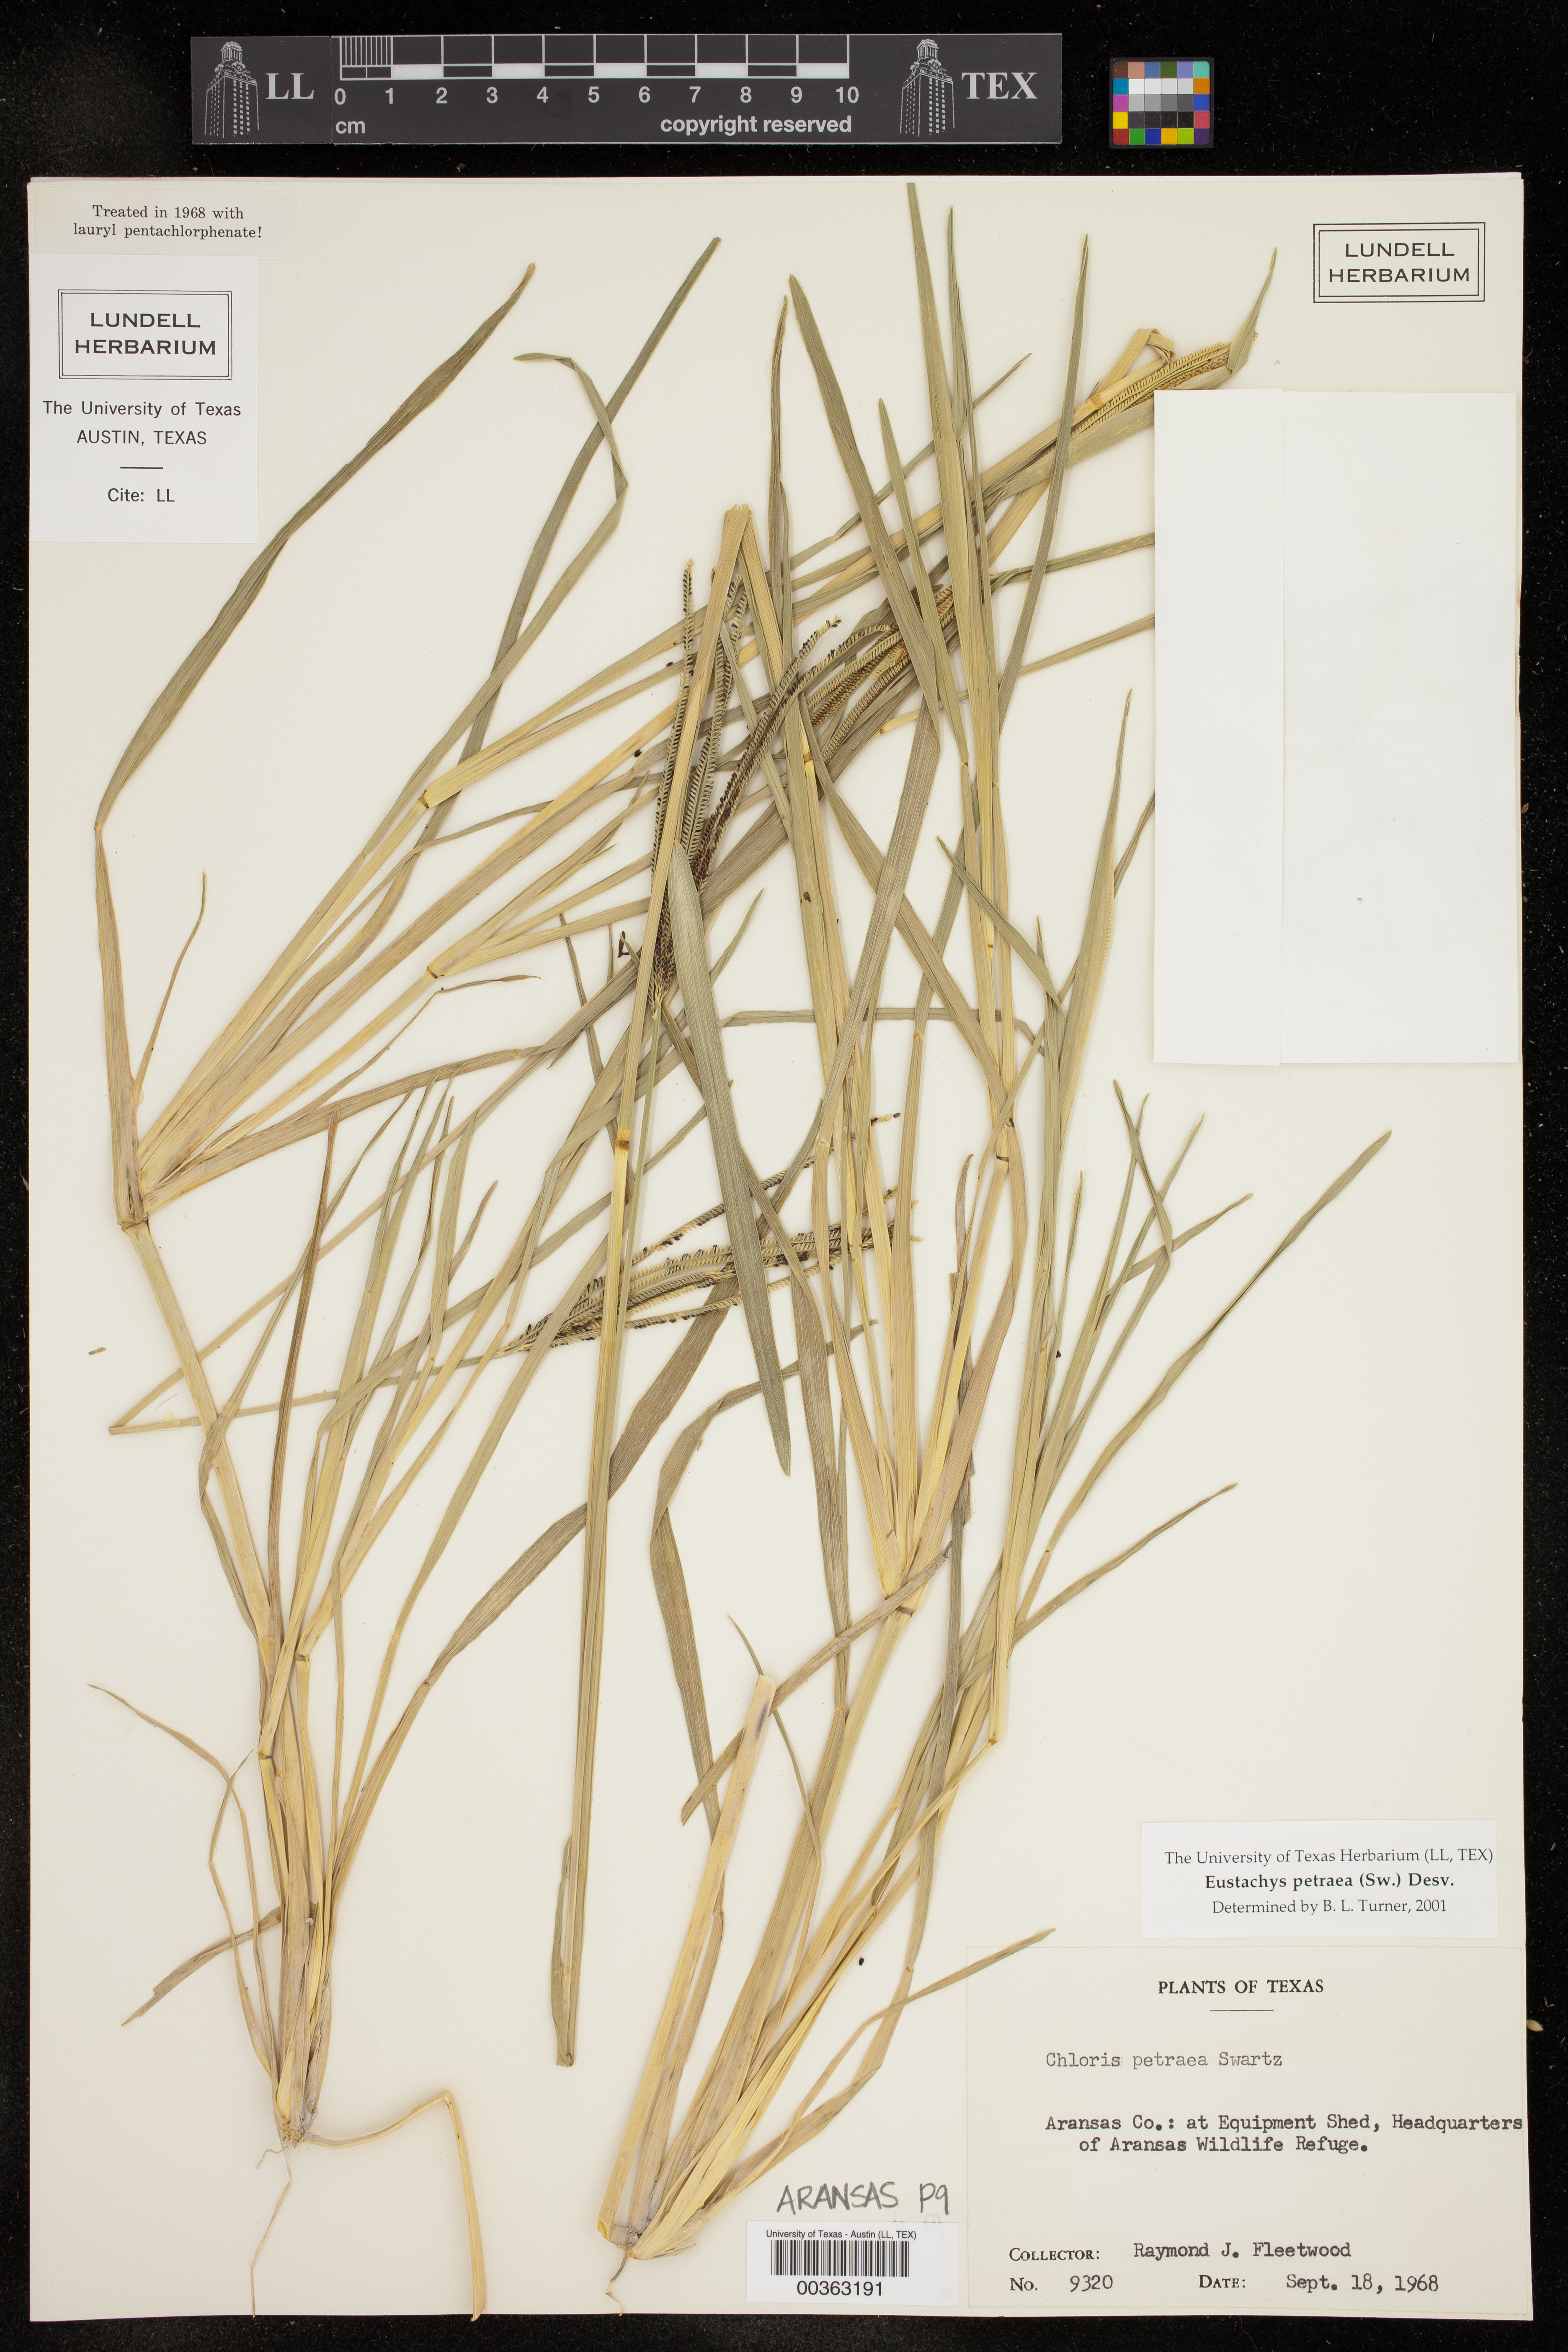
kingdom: Plantae
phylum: Tracheophyta
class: Liliopsida
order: Poales
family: Poaceae
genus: Eustachys
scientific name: Eustachys petraea
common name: Pinewoods fingergrass
